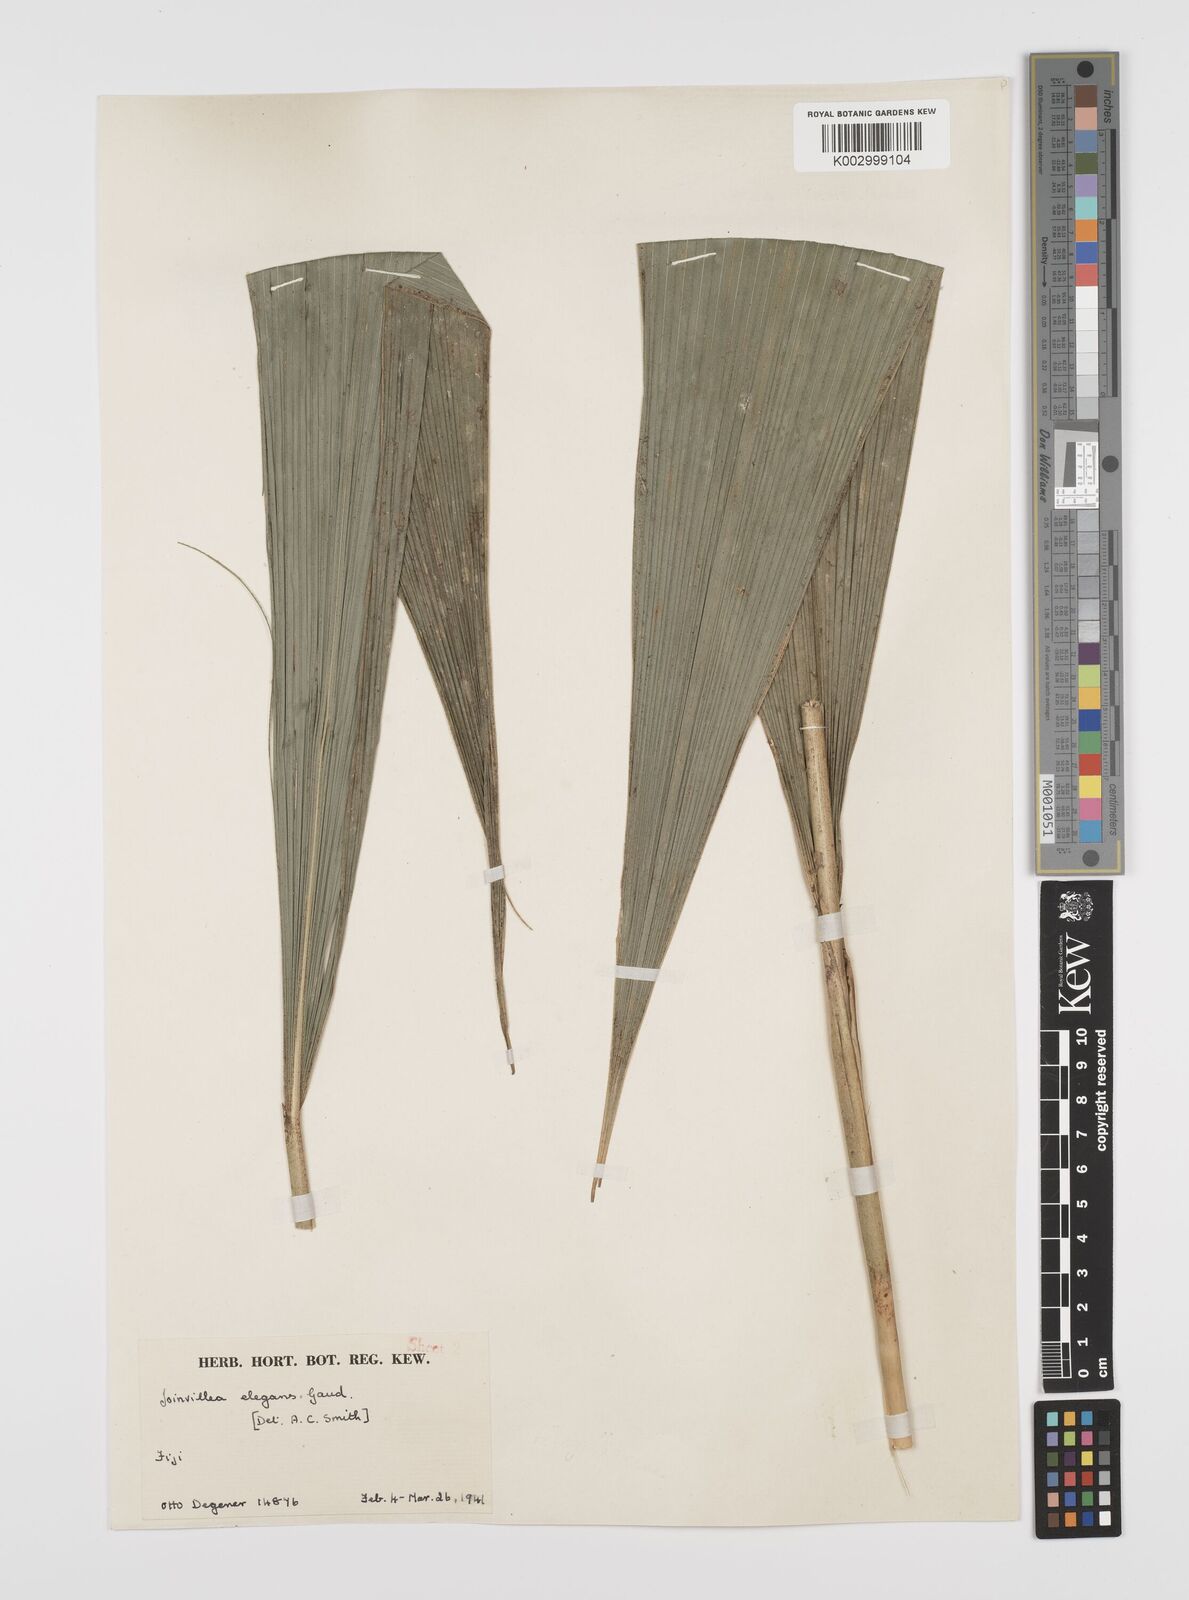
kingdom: Plantae
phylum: Tracheophyta
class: Liliopsida
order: Poales
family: Joinvilleaceae
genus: Joinvillea
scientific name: Joinvillea plicata
